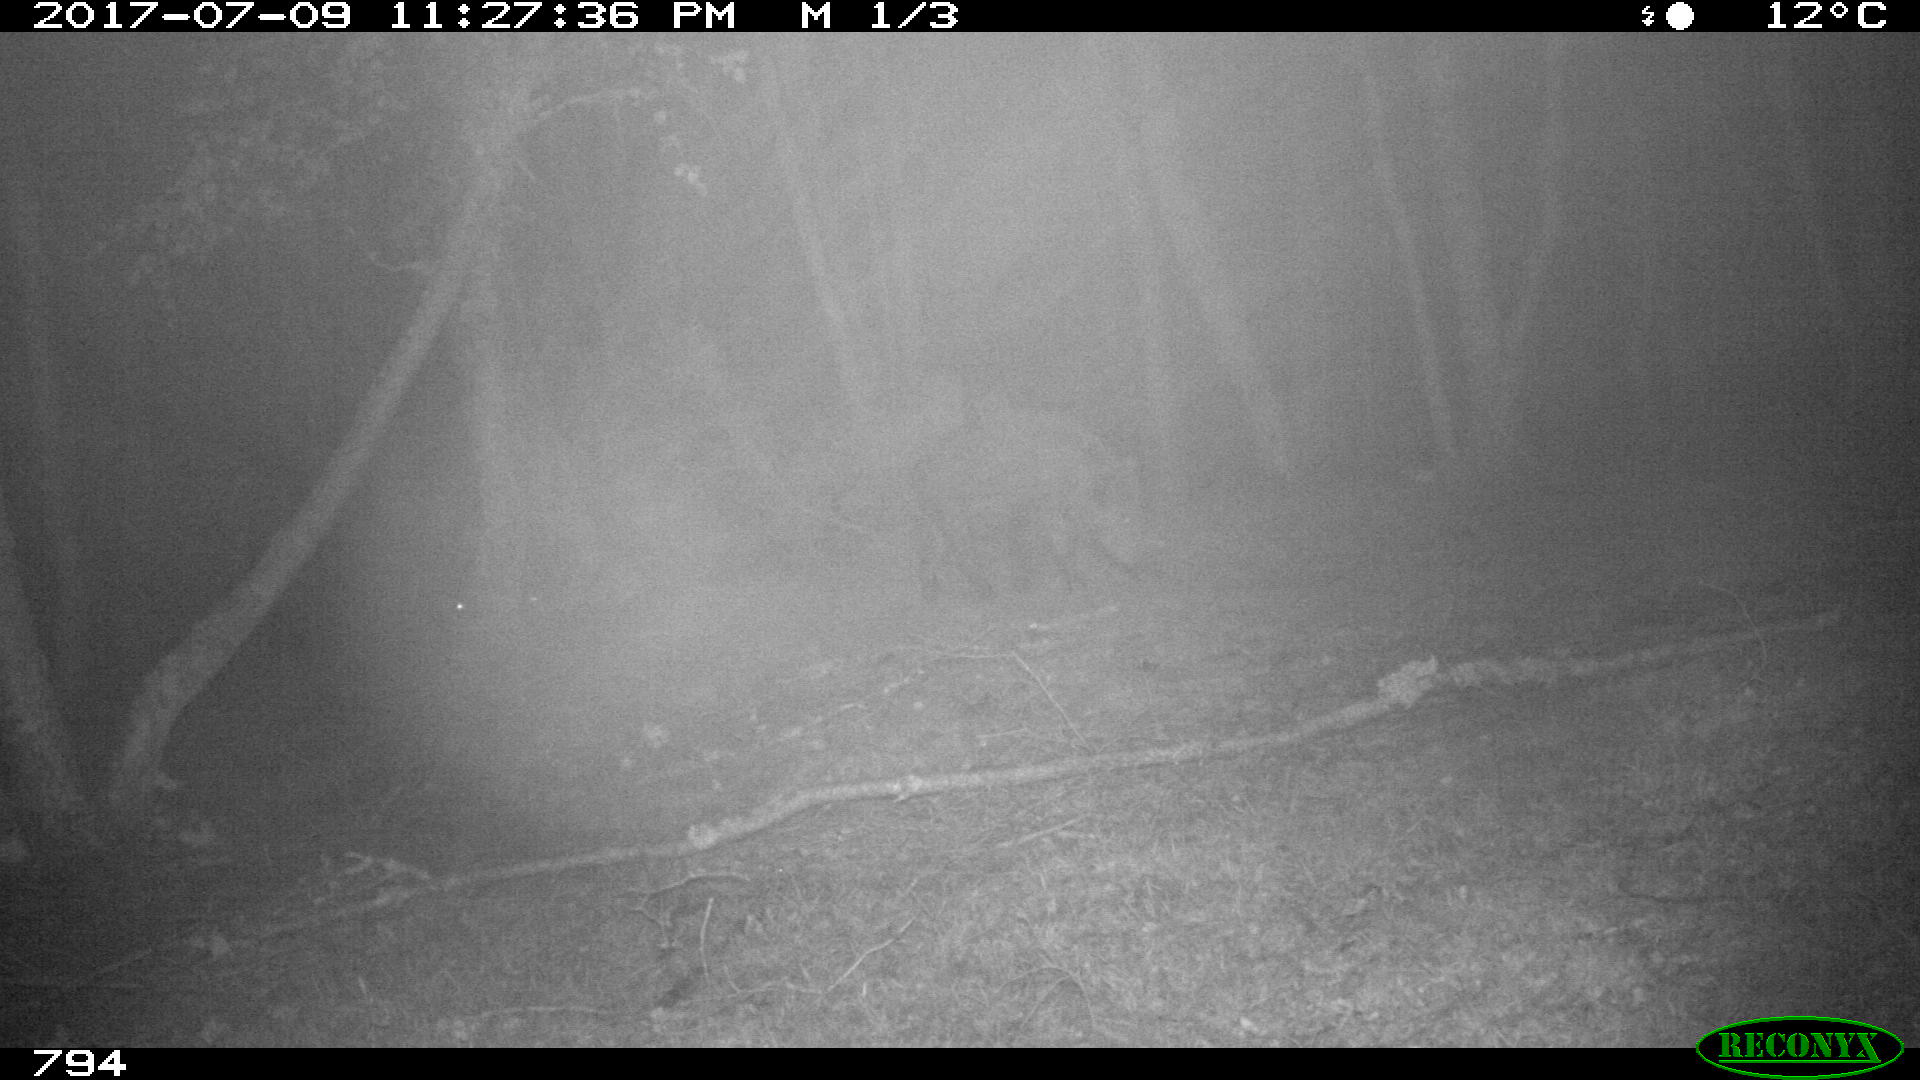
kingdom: Animalia
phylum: Chordata
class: Mammalia
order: Artiodactyla
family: Suidae
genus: Sus
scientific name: Sus scrofa
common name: Wild boar
